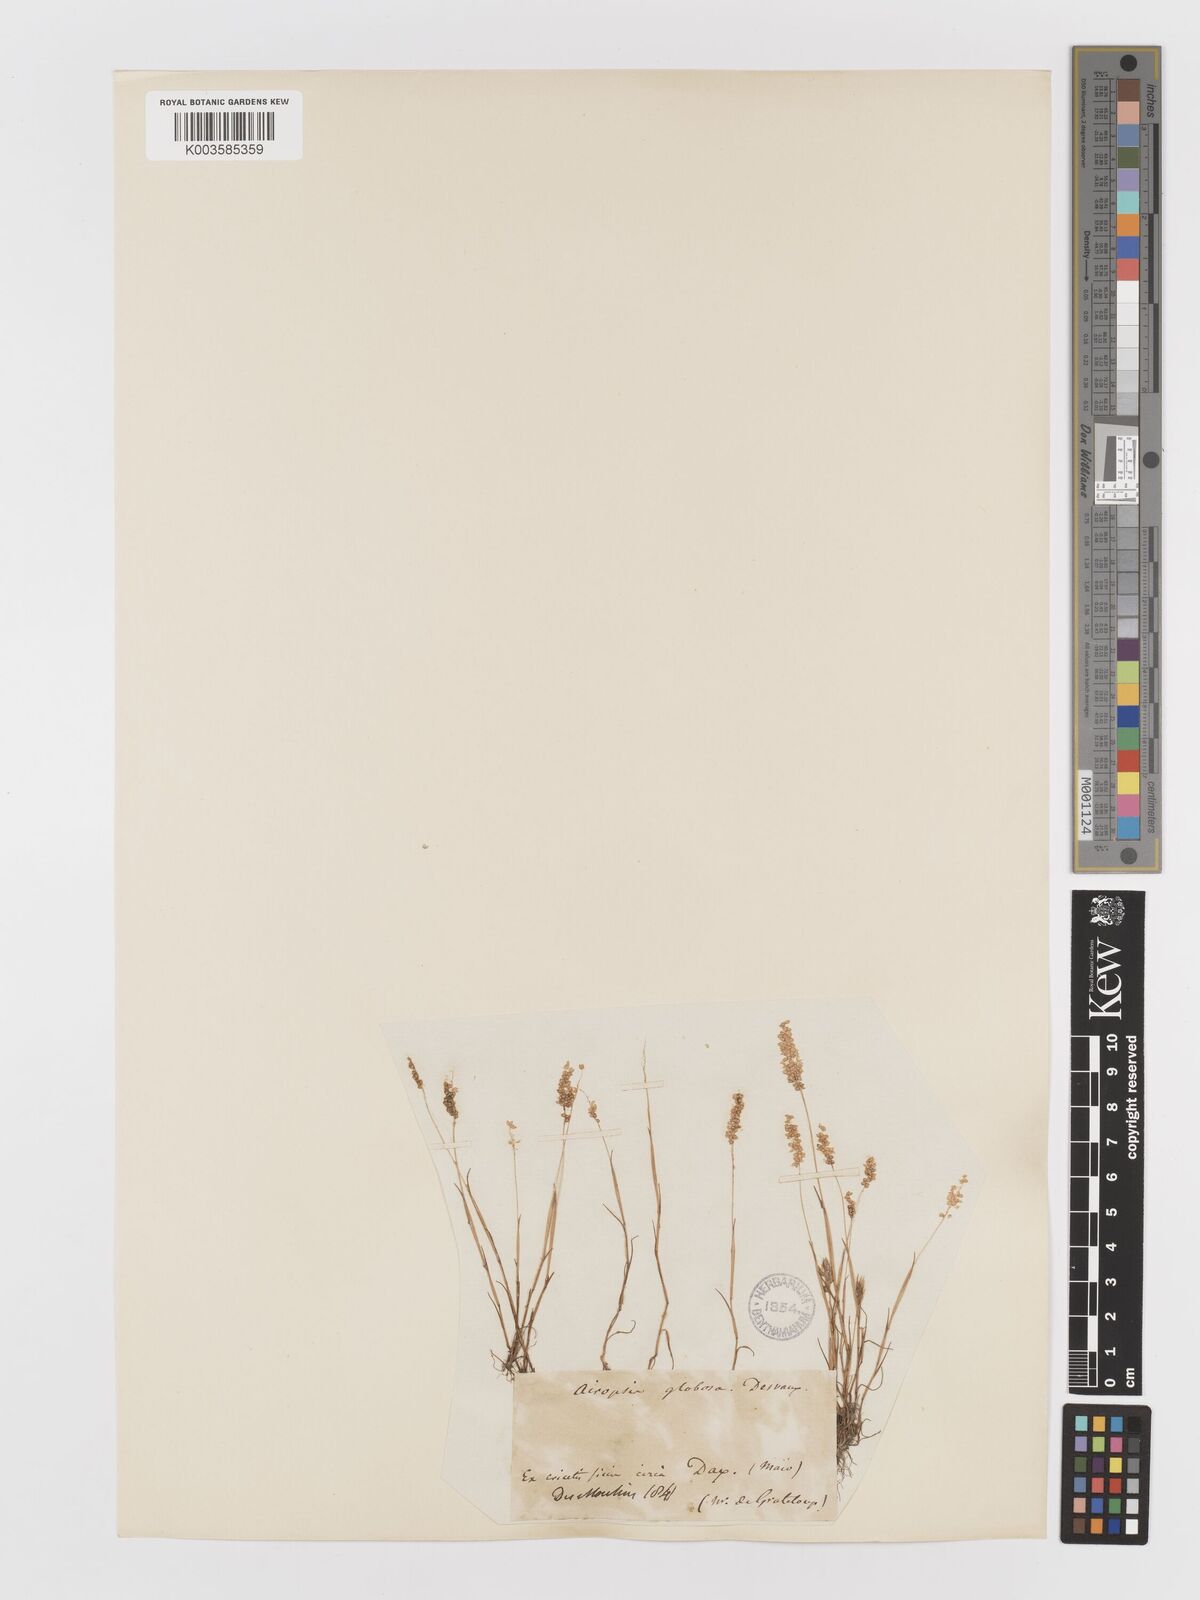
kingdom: Plantae
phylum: Tracheophyta
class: Liliopsida
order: Poales
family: Poaceae
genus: Airopsis
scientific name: Airopsis tenella
